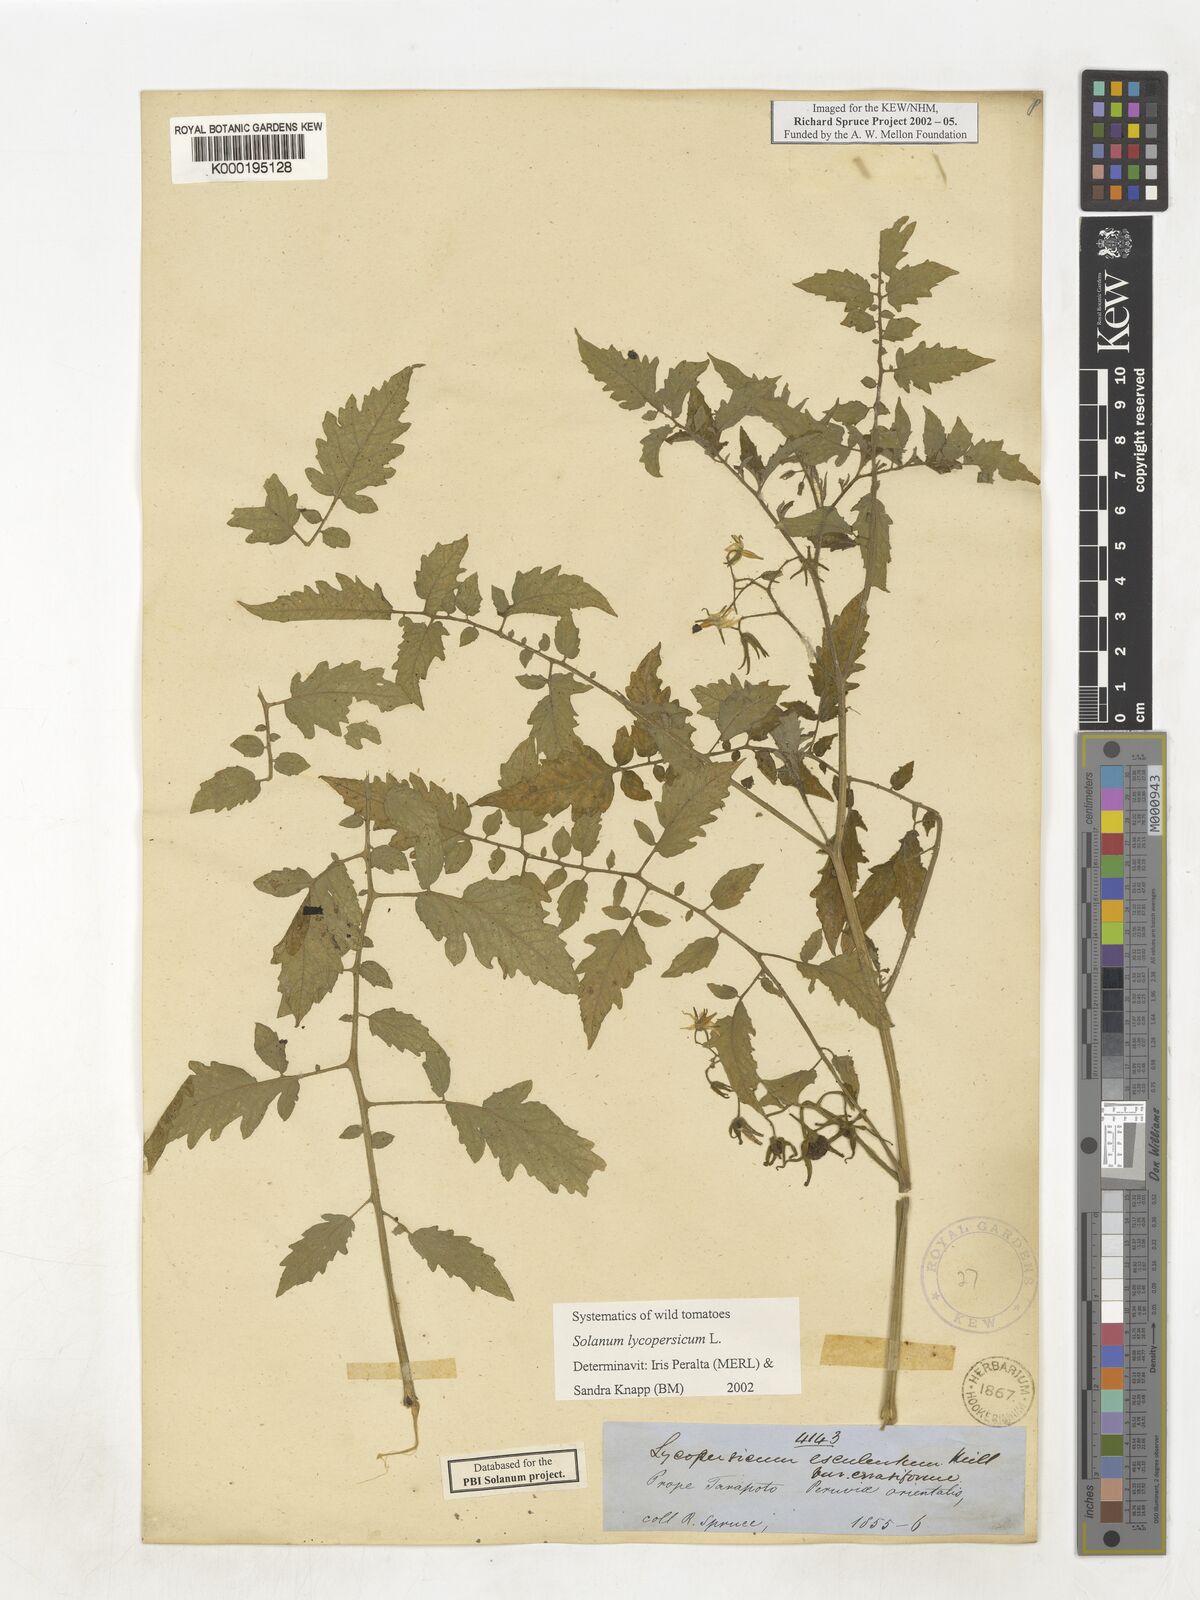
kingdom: Plantae
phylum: Tracheophyta
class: Magnoliopsida
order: Solanales
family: Solanaceae
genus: Solanum
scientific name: Solanum lycopersicum
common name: Garden tomato
